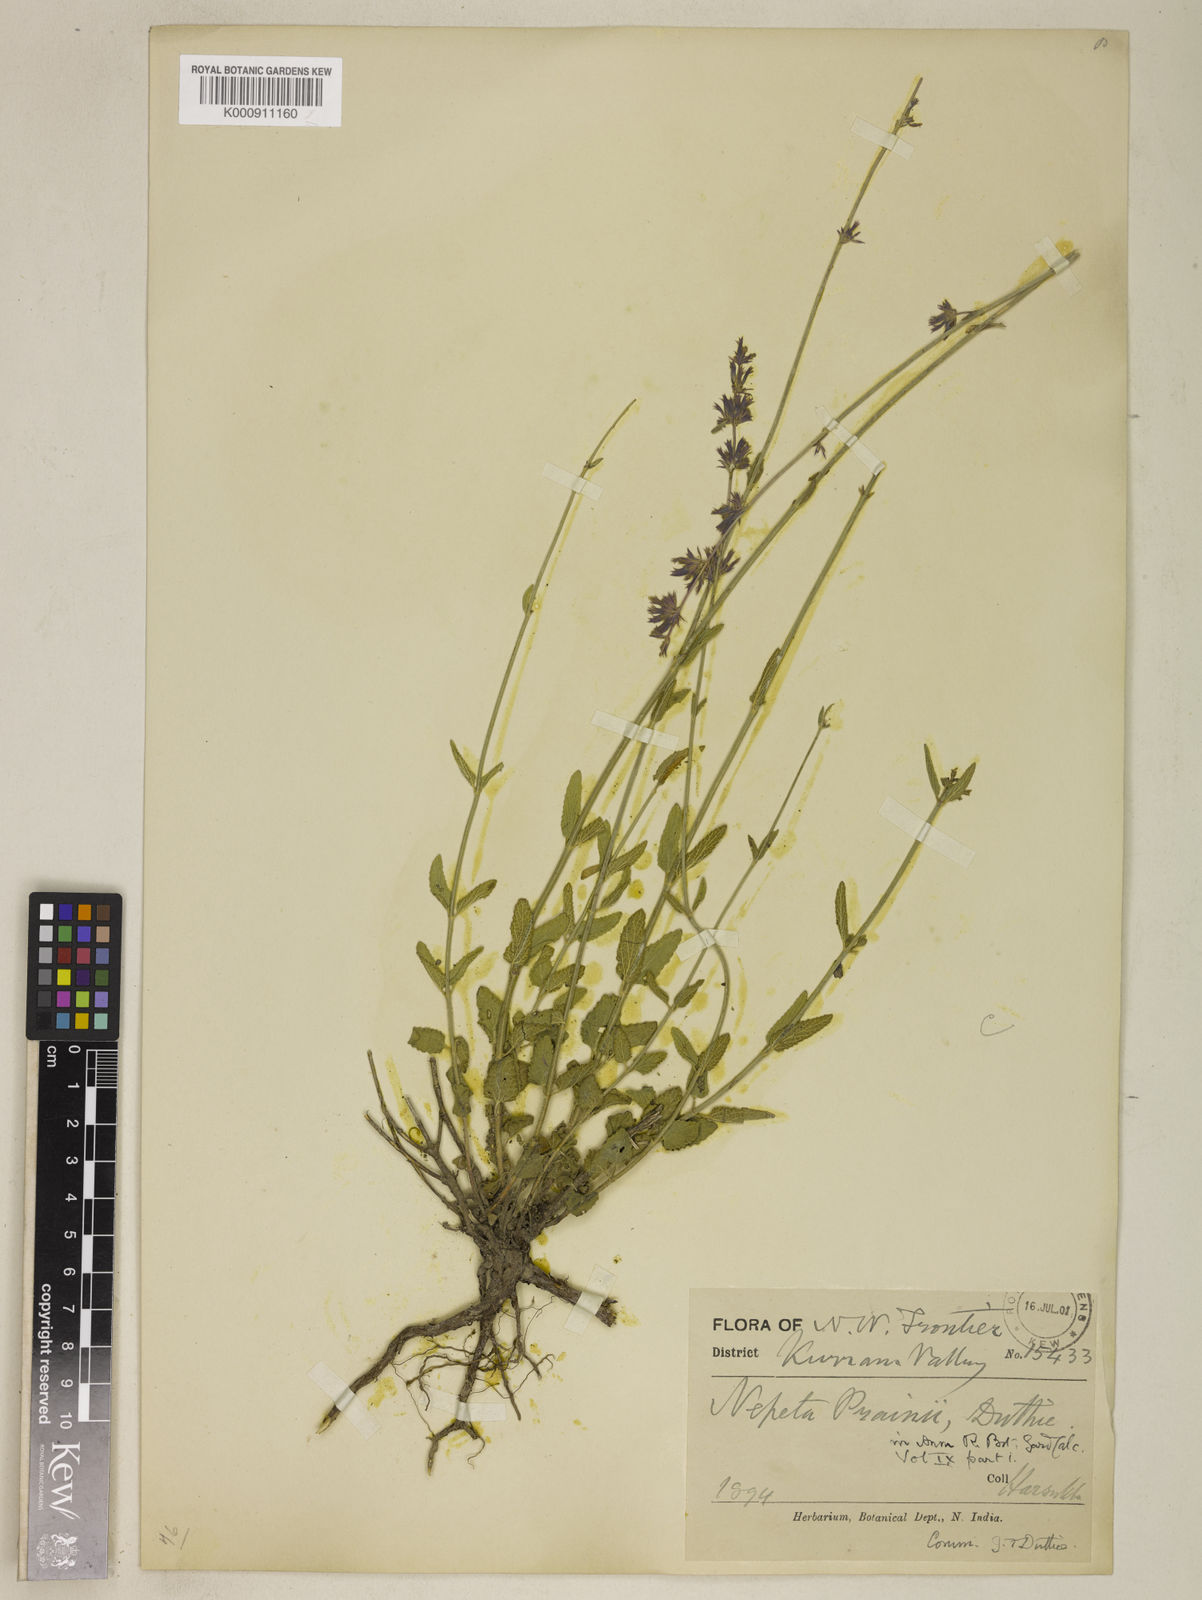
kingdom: Plantae
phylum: Tracheophyta
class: Magnoliopsida
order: Lamiales
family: Lamiaceae
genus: Nepeta
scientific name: Nepeta distans
